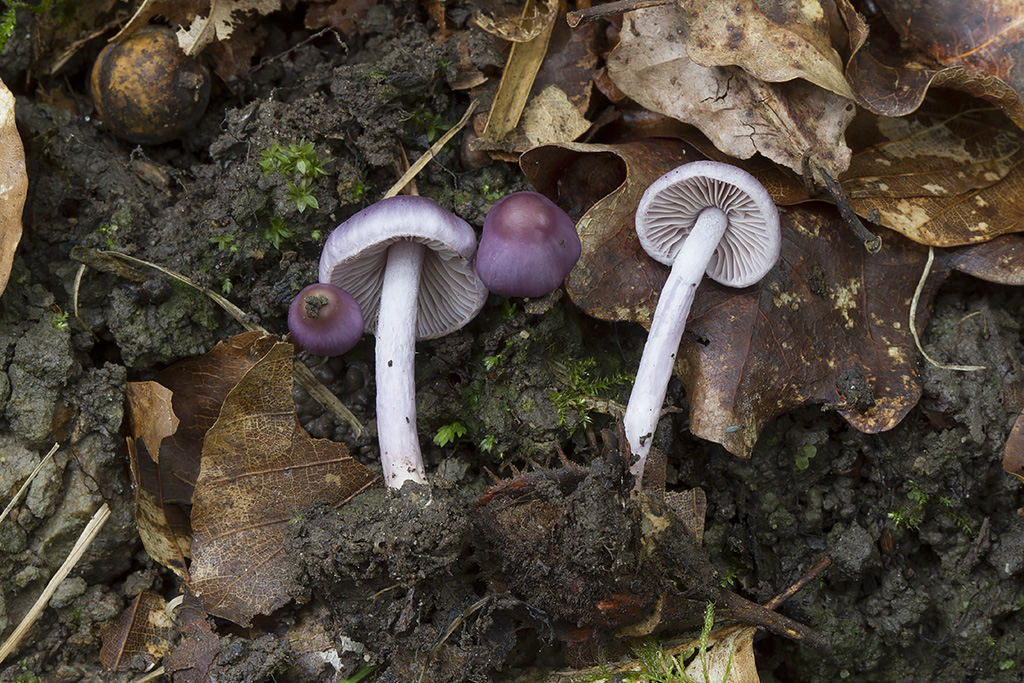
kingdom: Fungi
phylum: Basidiomycota
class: Agaricomycetes
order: Agaricales
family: Inocybaceae
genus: Inocybe
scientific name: Inocybe geophylla
